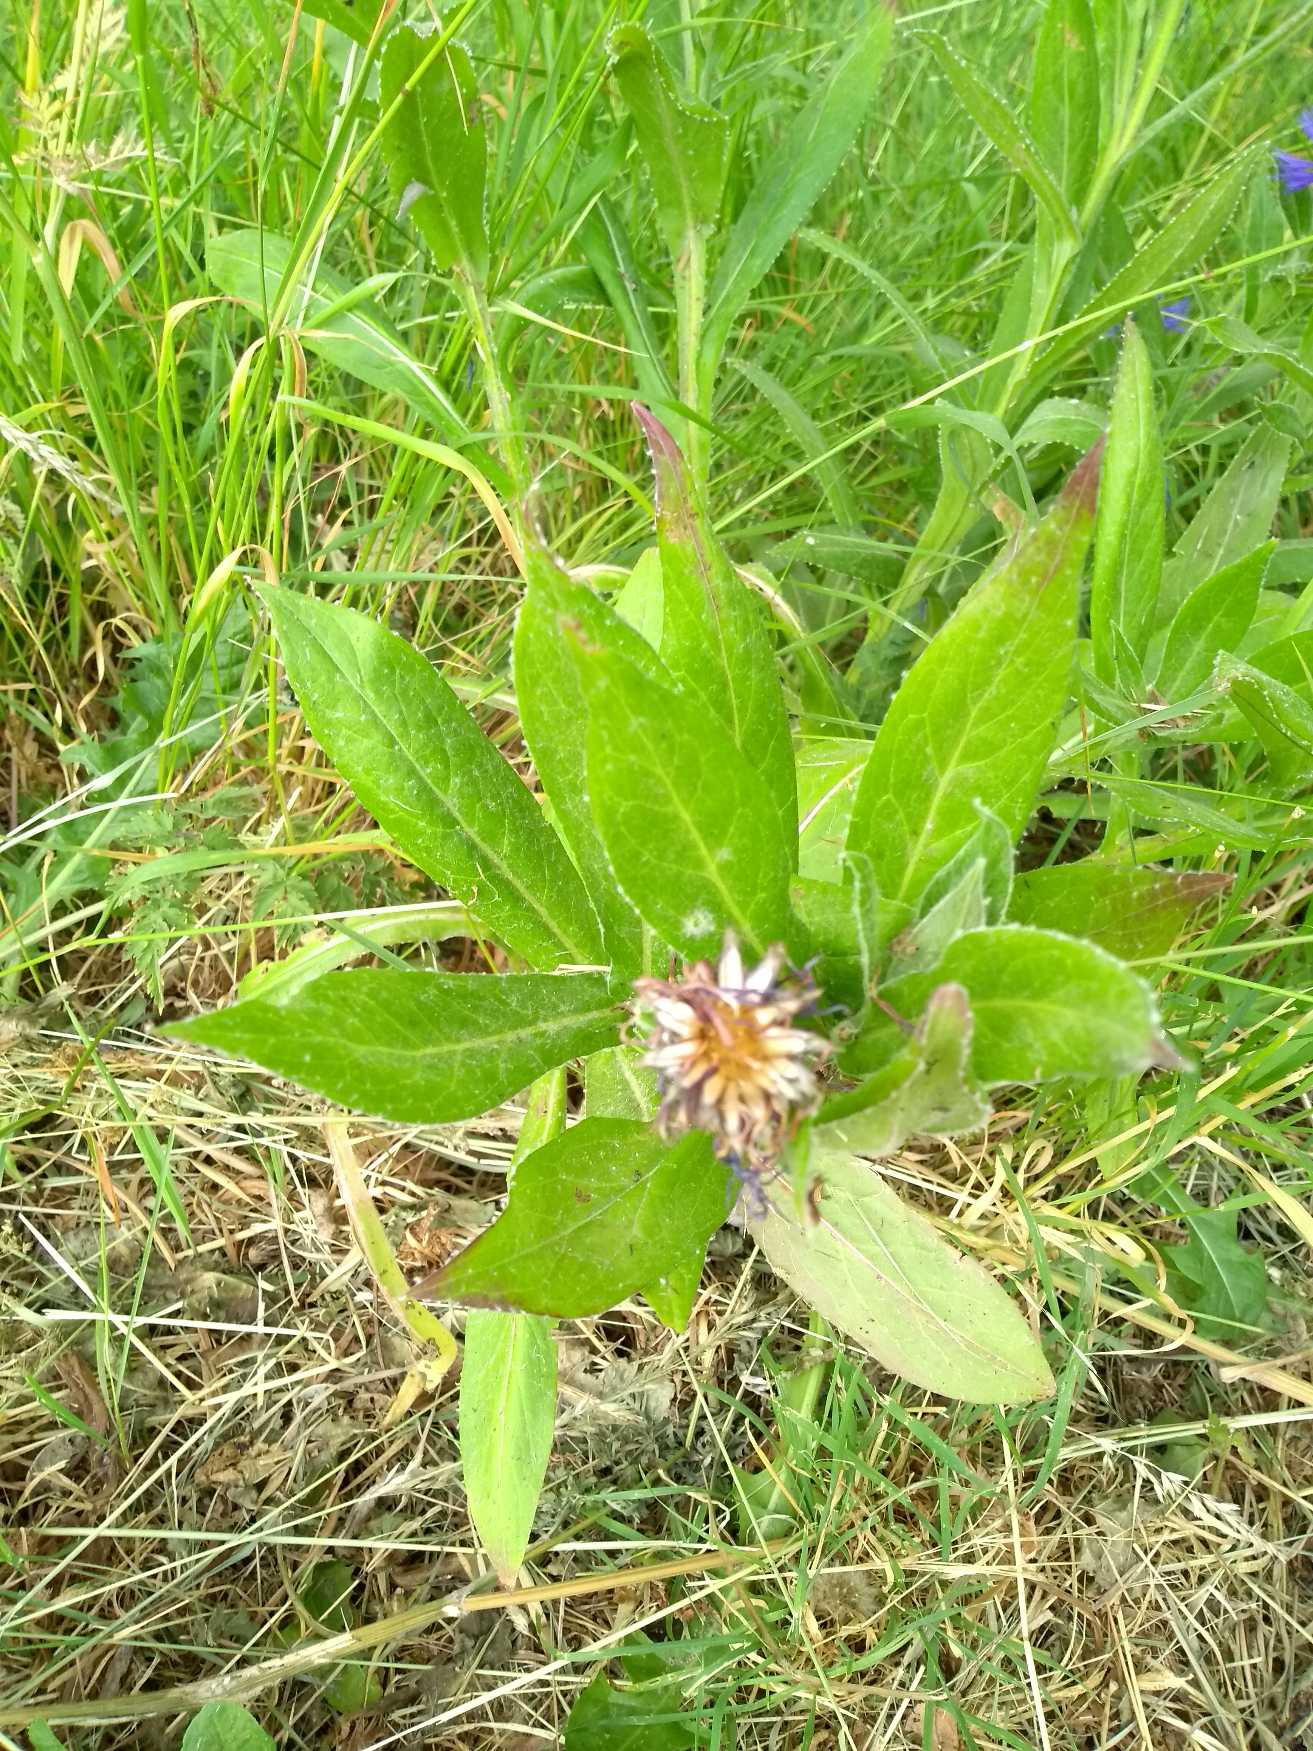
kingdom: Plantae
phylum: Tracheophyta
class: Magnoliopsida
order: Asterales
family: Asteraceae
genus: Centaurea
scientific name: Centaurea montana
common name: Bjerg-knopurt
